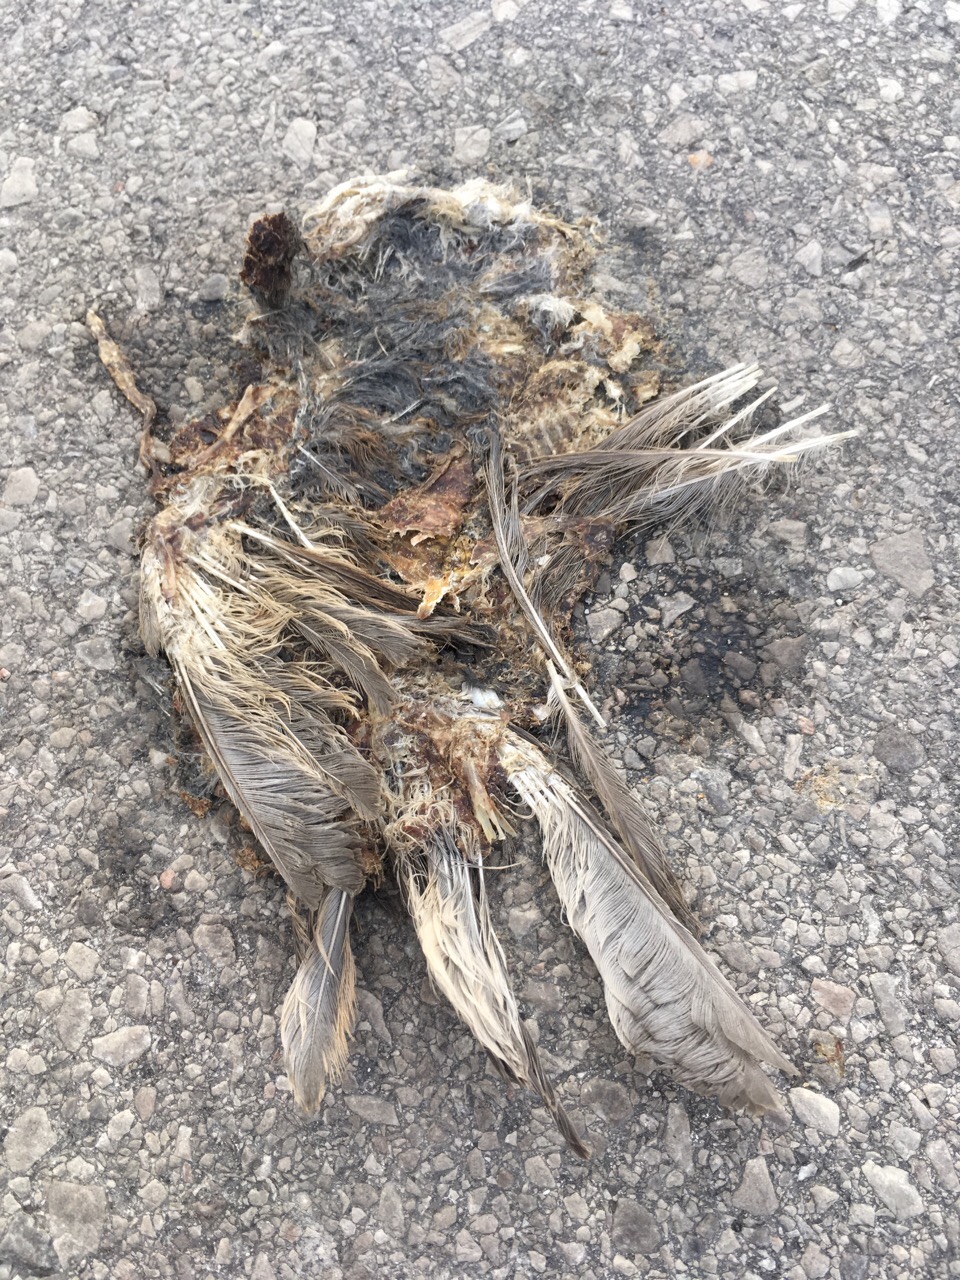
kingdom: Animalia
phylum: Chordata
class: Aves
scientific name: Aves
